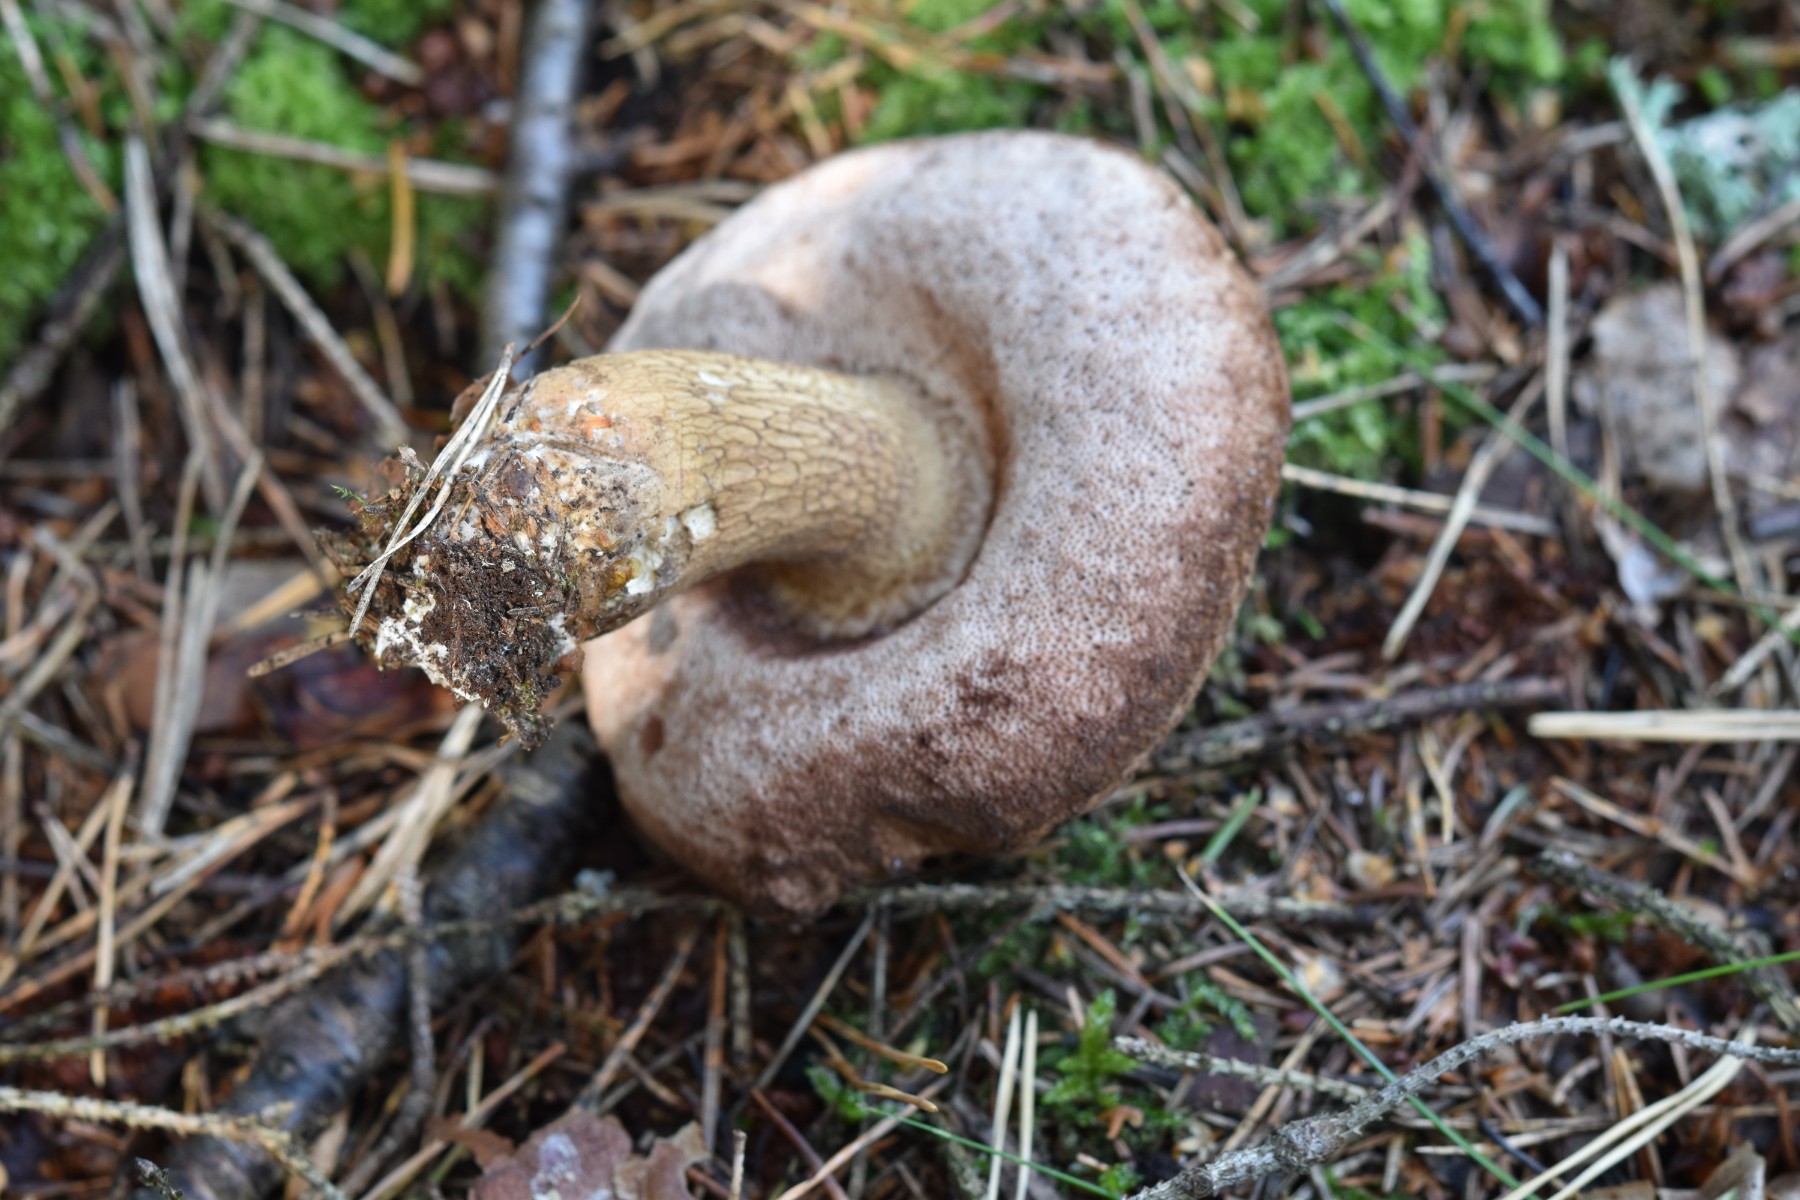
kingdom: Fungi
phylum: Basidiomycota
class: Agaricomycetes
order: Boletales
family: Boletaceae
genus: Tylopilus
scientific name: Tylopilus felleus
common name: galderørhat
